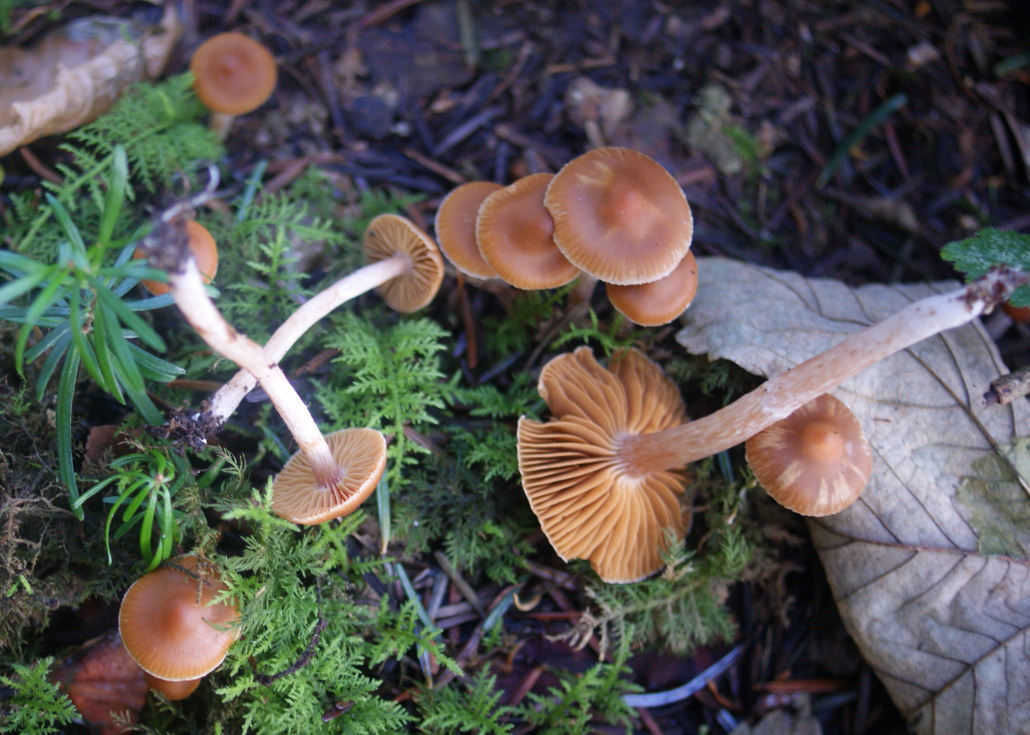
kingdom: Fungi
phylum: Basidiomycota
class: Agaricomycetes
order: Agaricales
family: Cortinariaceae
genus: Cortinarius
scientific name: Cortinarius
